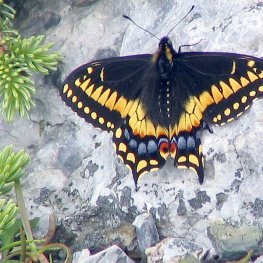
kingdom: Animalia
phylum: Arthropoda
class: Insecta
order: Lepidoptera
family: Papilionidae
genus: Papilio
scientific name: Papilio brevicauda
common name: Short-tailed Swallowtail
